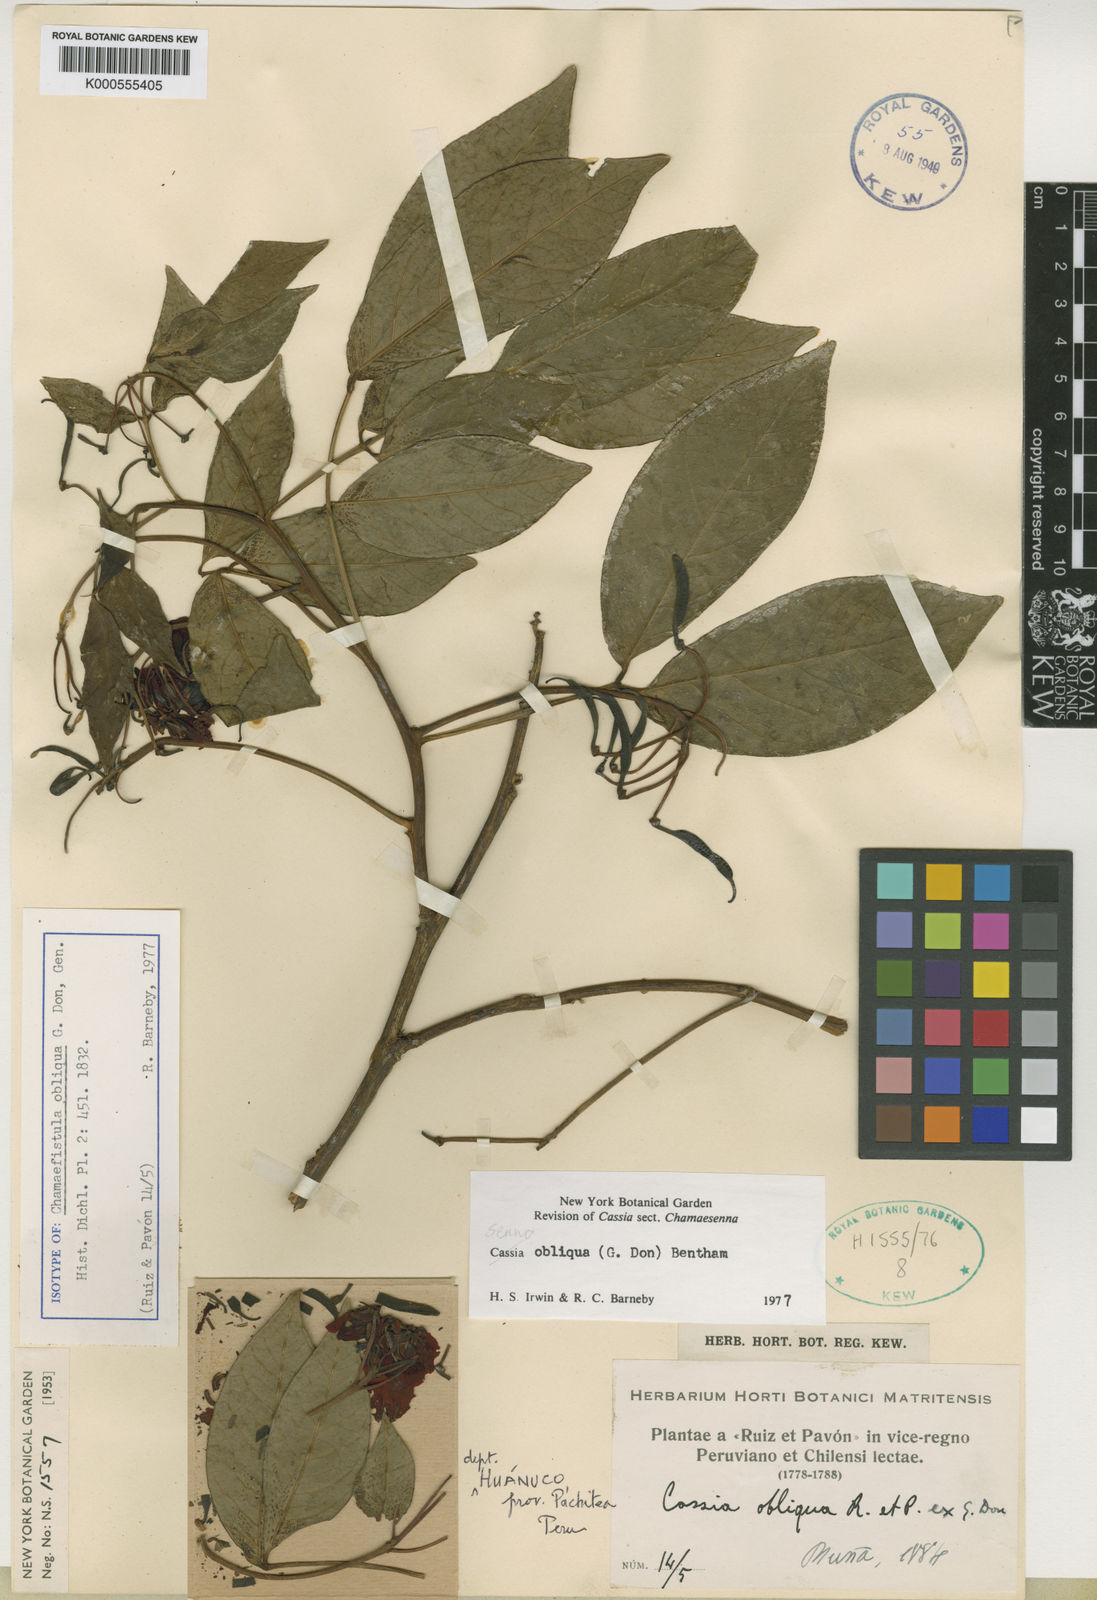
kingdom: Plantae
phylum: Tracheophyta
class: Magnoliopsida
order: Fabales
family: Fabaceae
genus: Senna
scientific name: Senna obliqua
